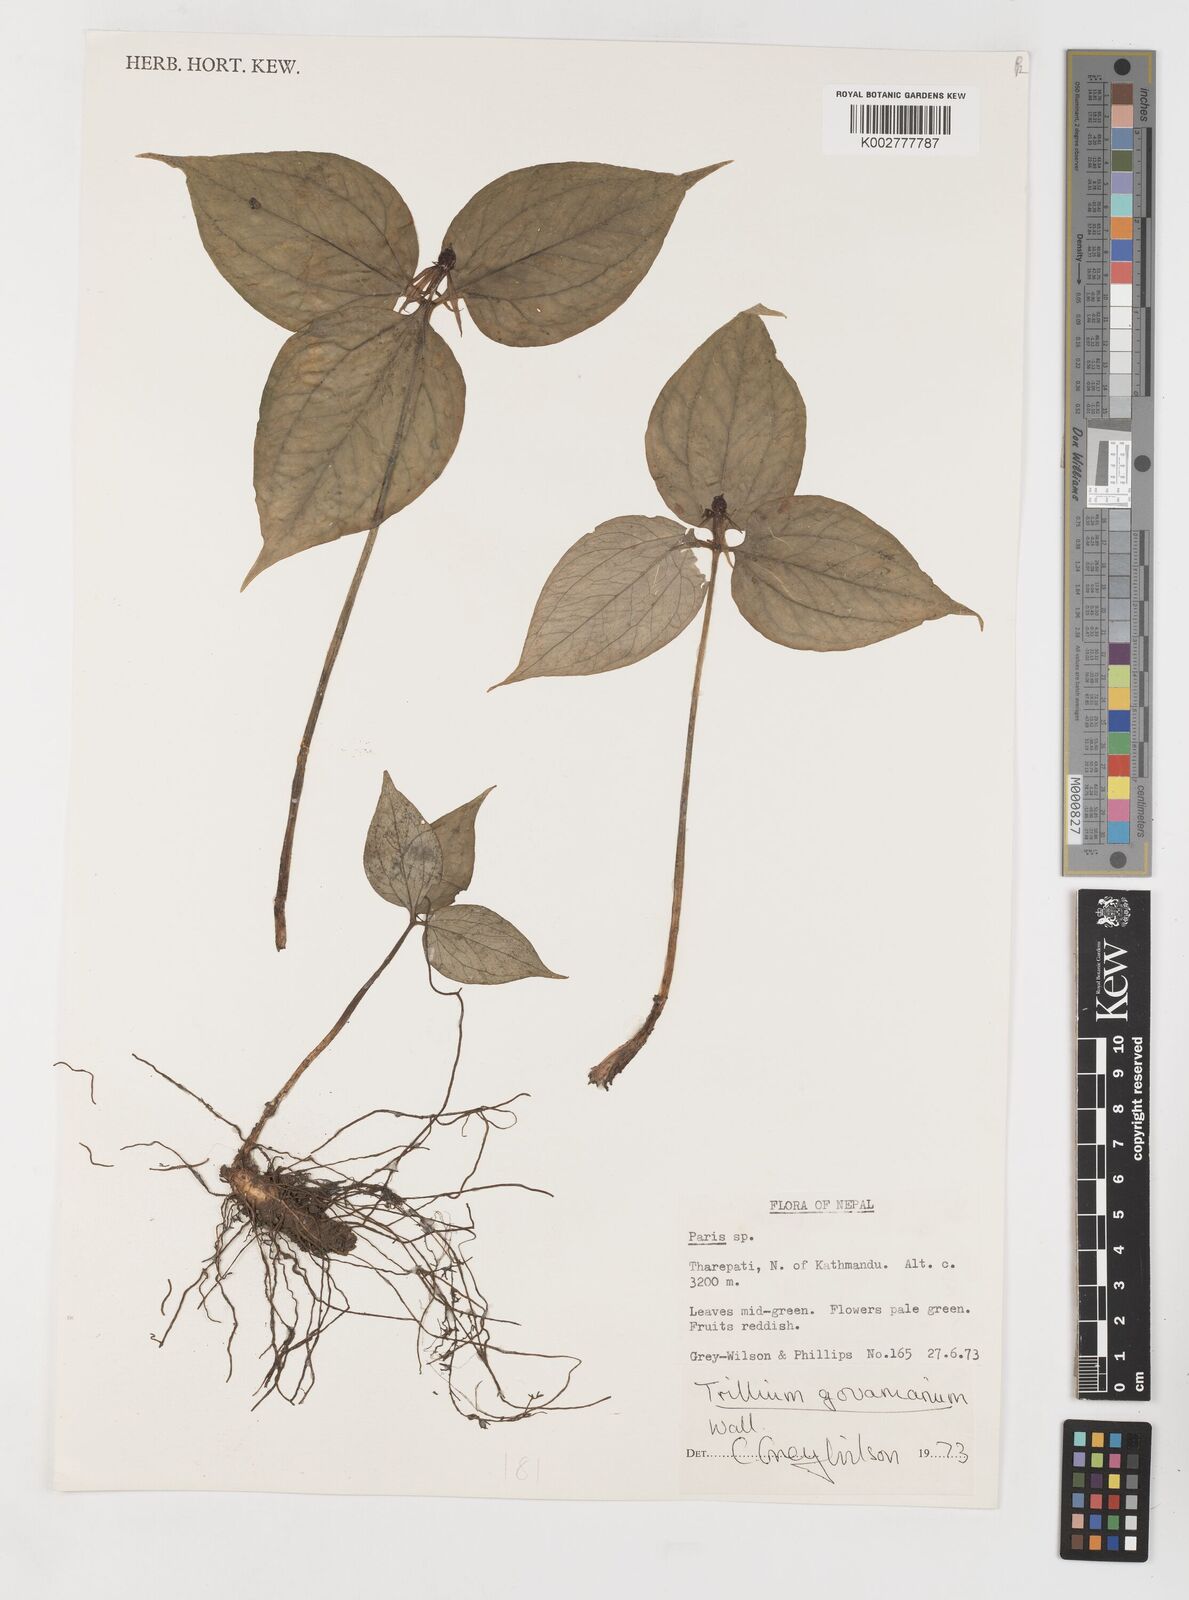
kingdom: Plantae
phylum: Tracheophyta
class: Liliopsida
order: Liliales
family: Melanthiaceae
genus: Trillium
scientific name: Trillium govanianum
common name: Himalayan trillium
